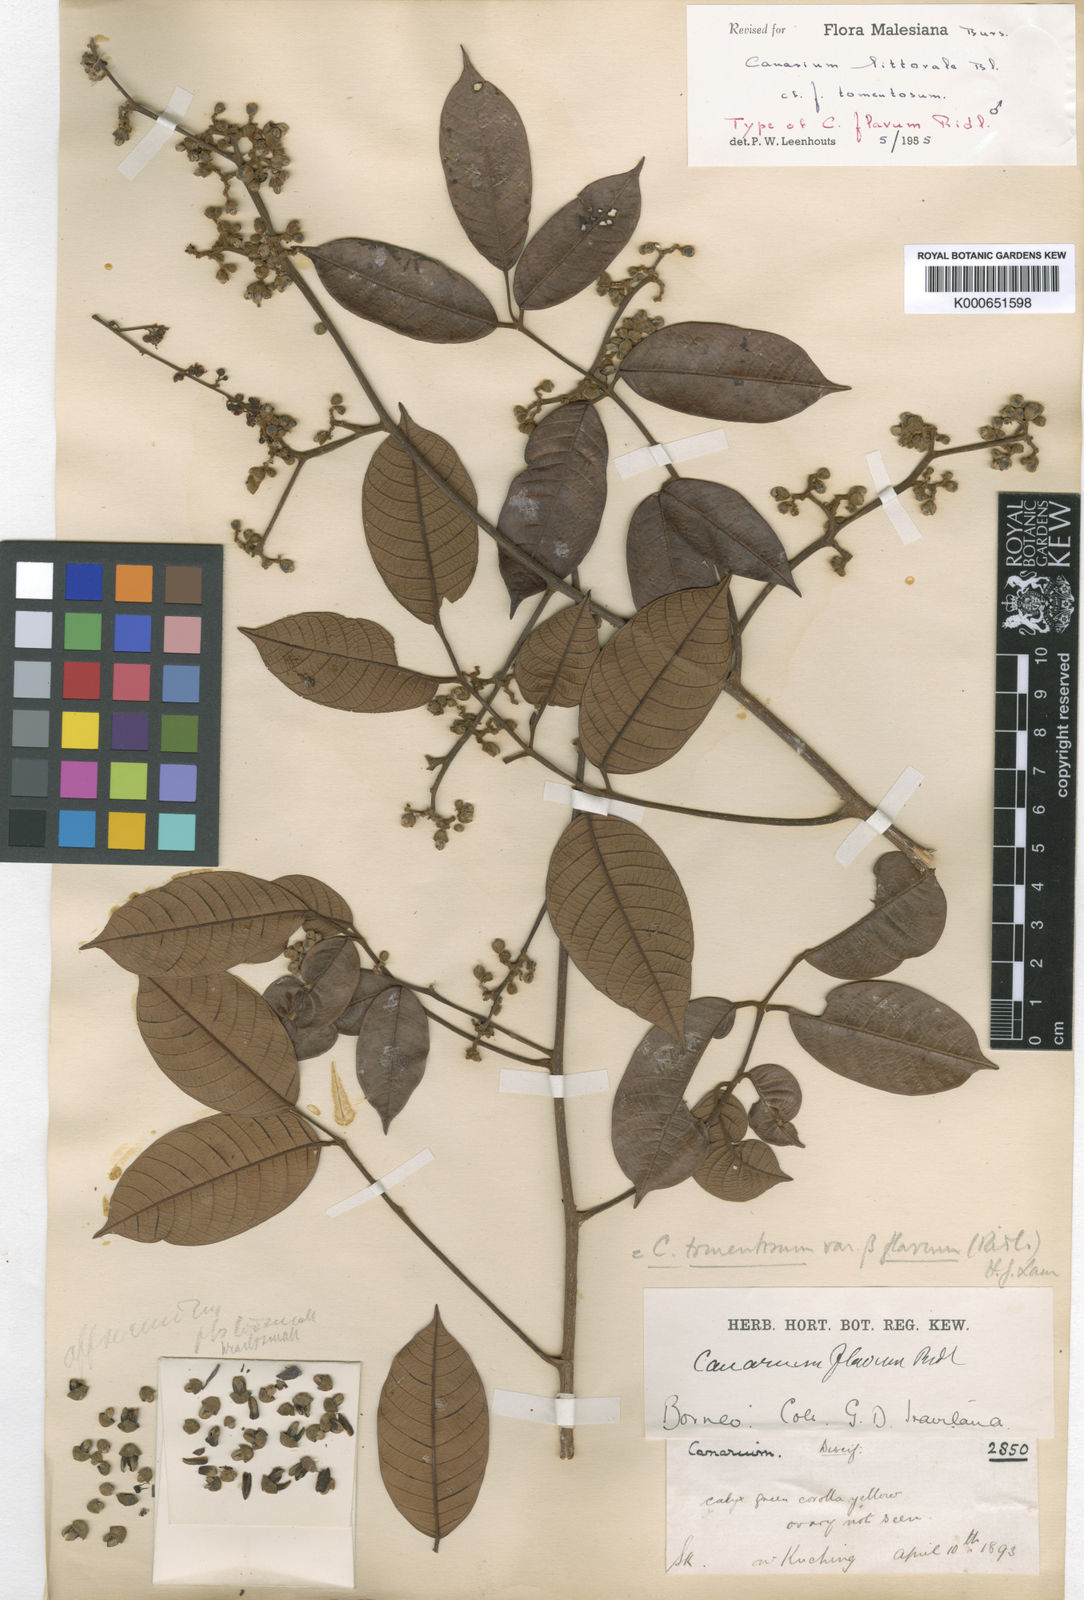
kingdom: Plantae
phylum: Tracheophyta
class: Magnoliopsida
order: Sapindales
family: Burseraceae
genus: Canarium
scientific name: Canarium littorale
